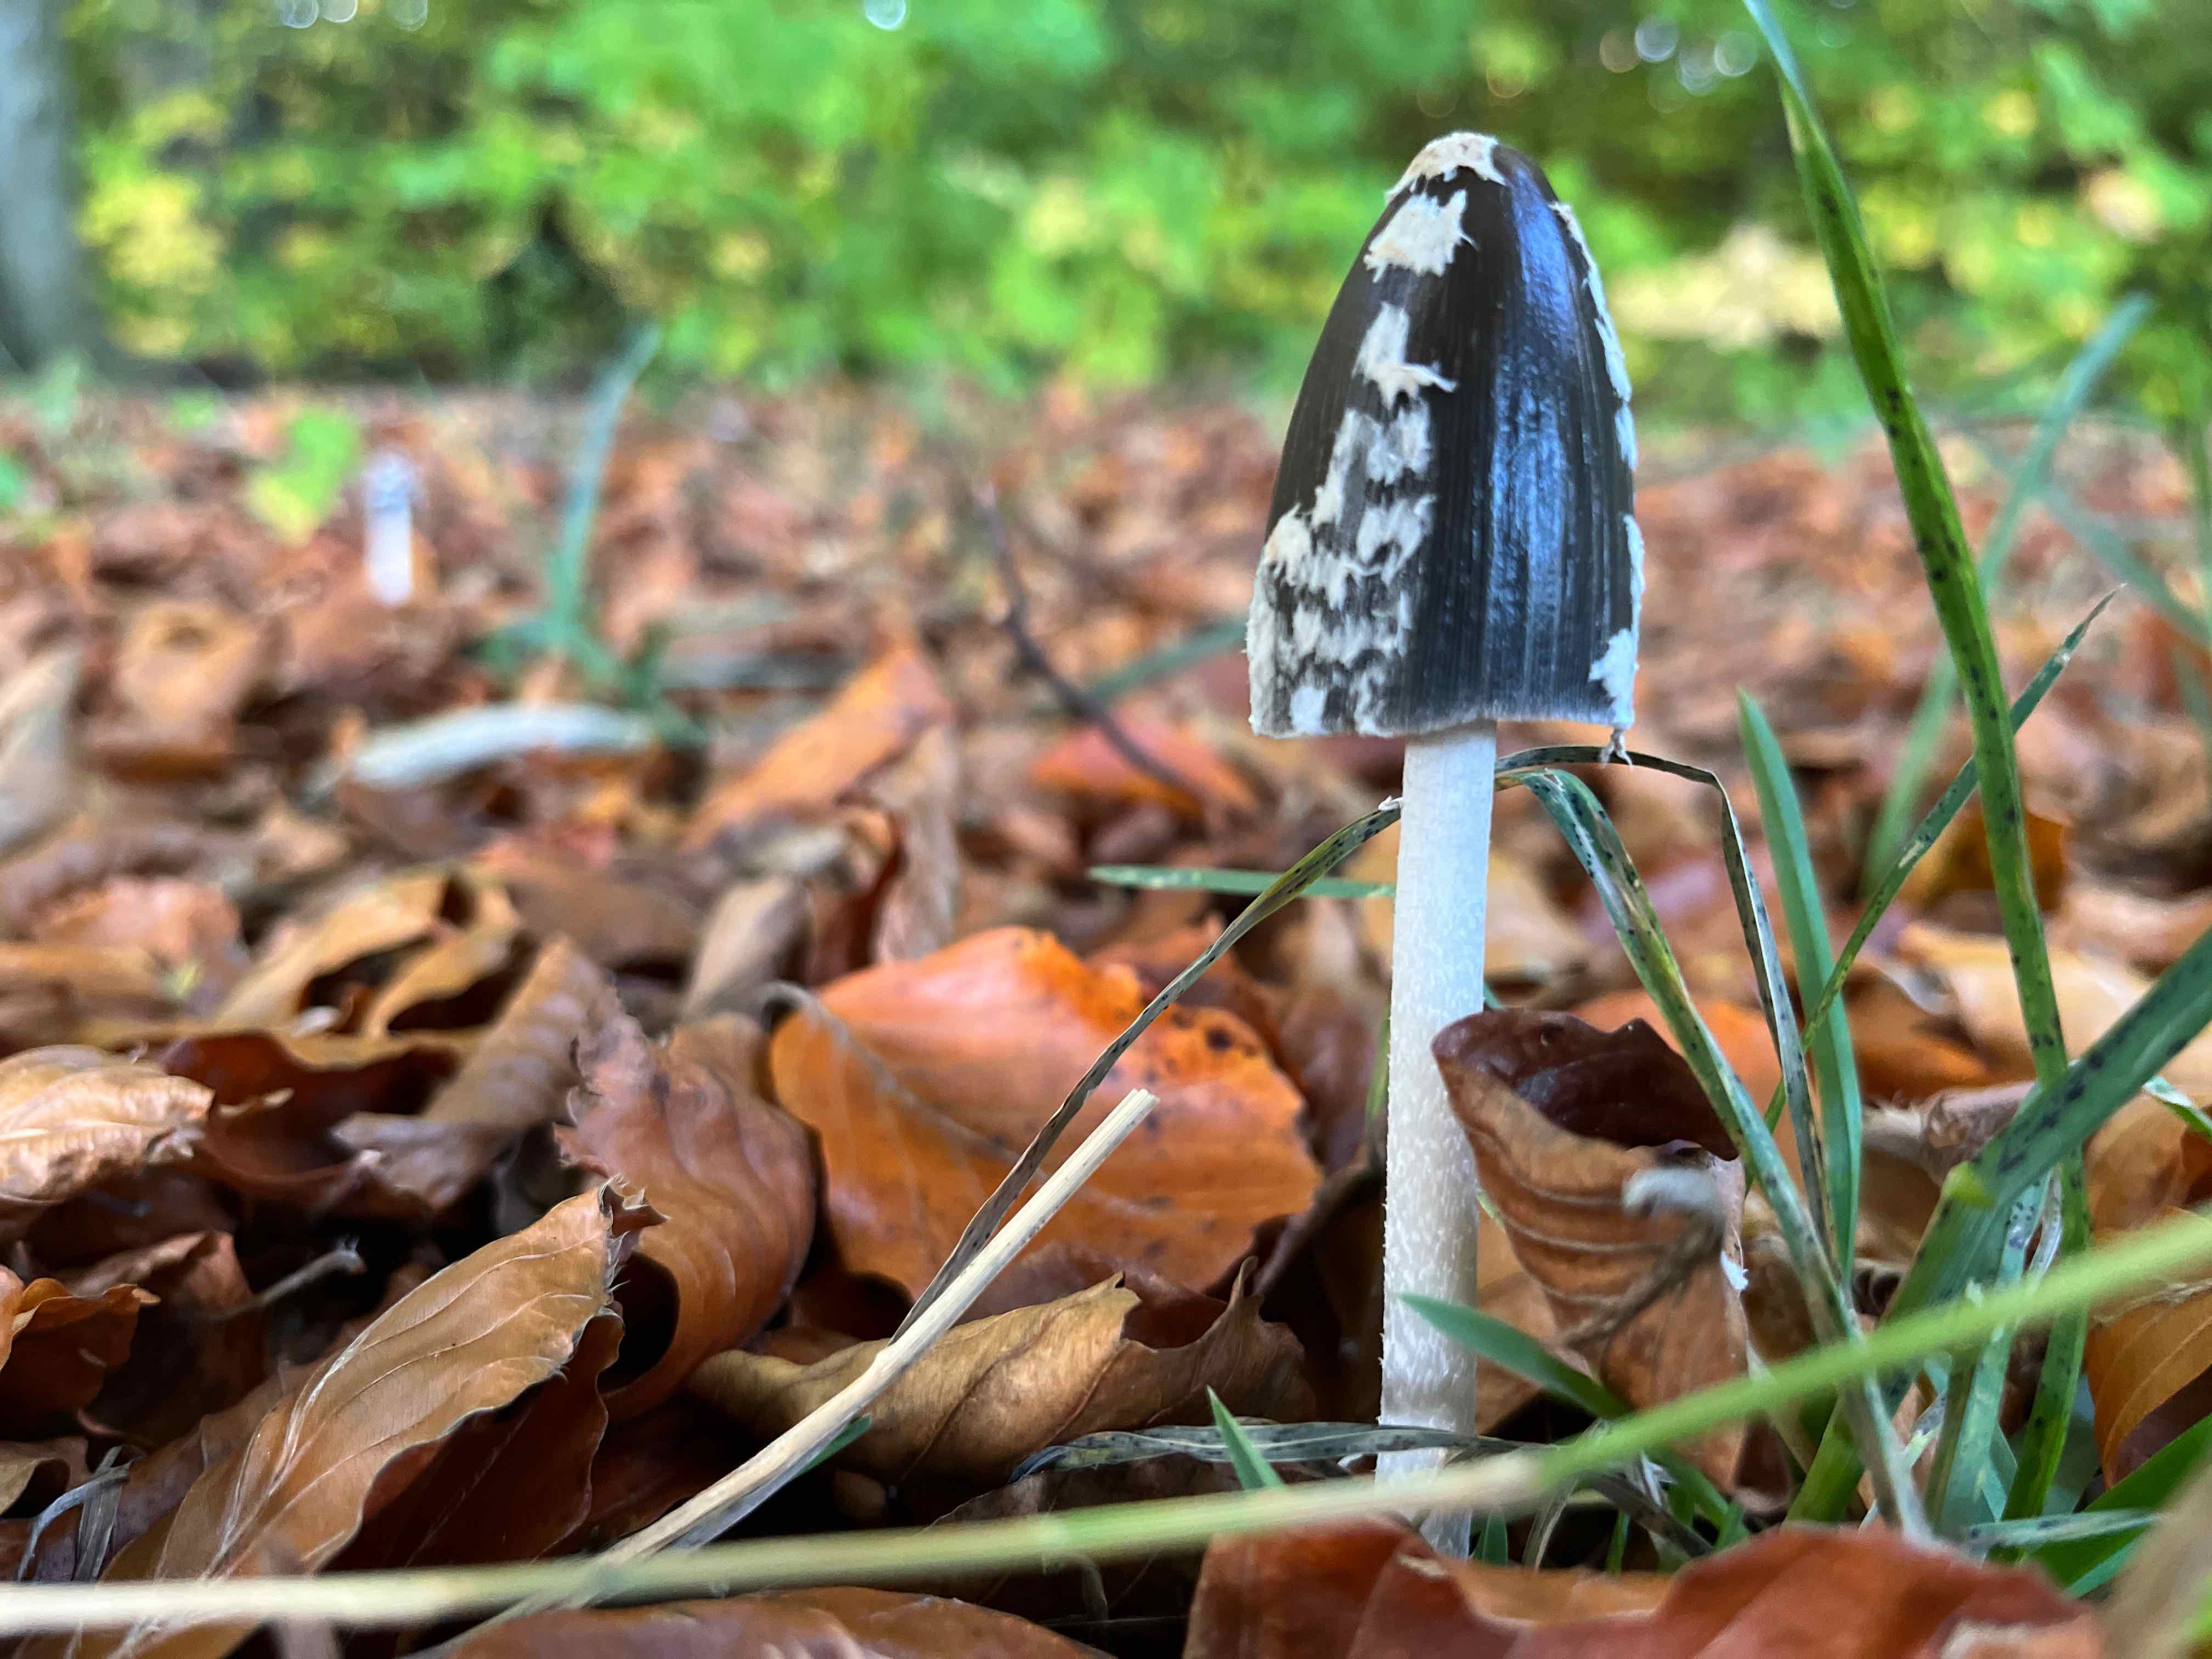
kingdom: Fungi
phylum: Basidiomycota
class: Agaricomycetes
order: Agaricales
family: Psathyrellaceae
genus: Coprinopsis
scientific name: Coprinopsis picacea
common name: skade-blækhat
